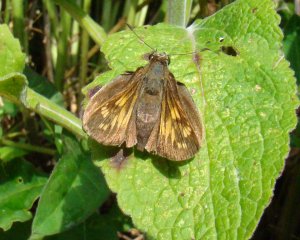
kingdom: Animalia
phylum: Arthropoda
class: Insecta
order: Lepidoptera
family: Hesperiidae
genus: Polites
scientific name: Polites coras
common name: Peck's Skipper
